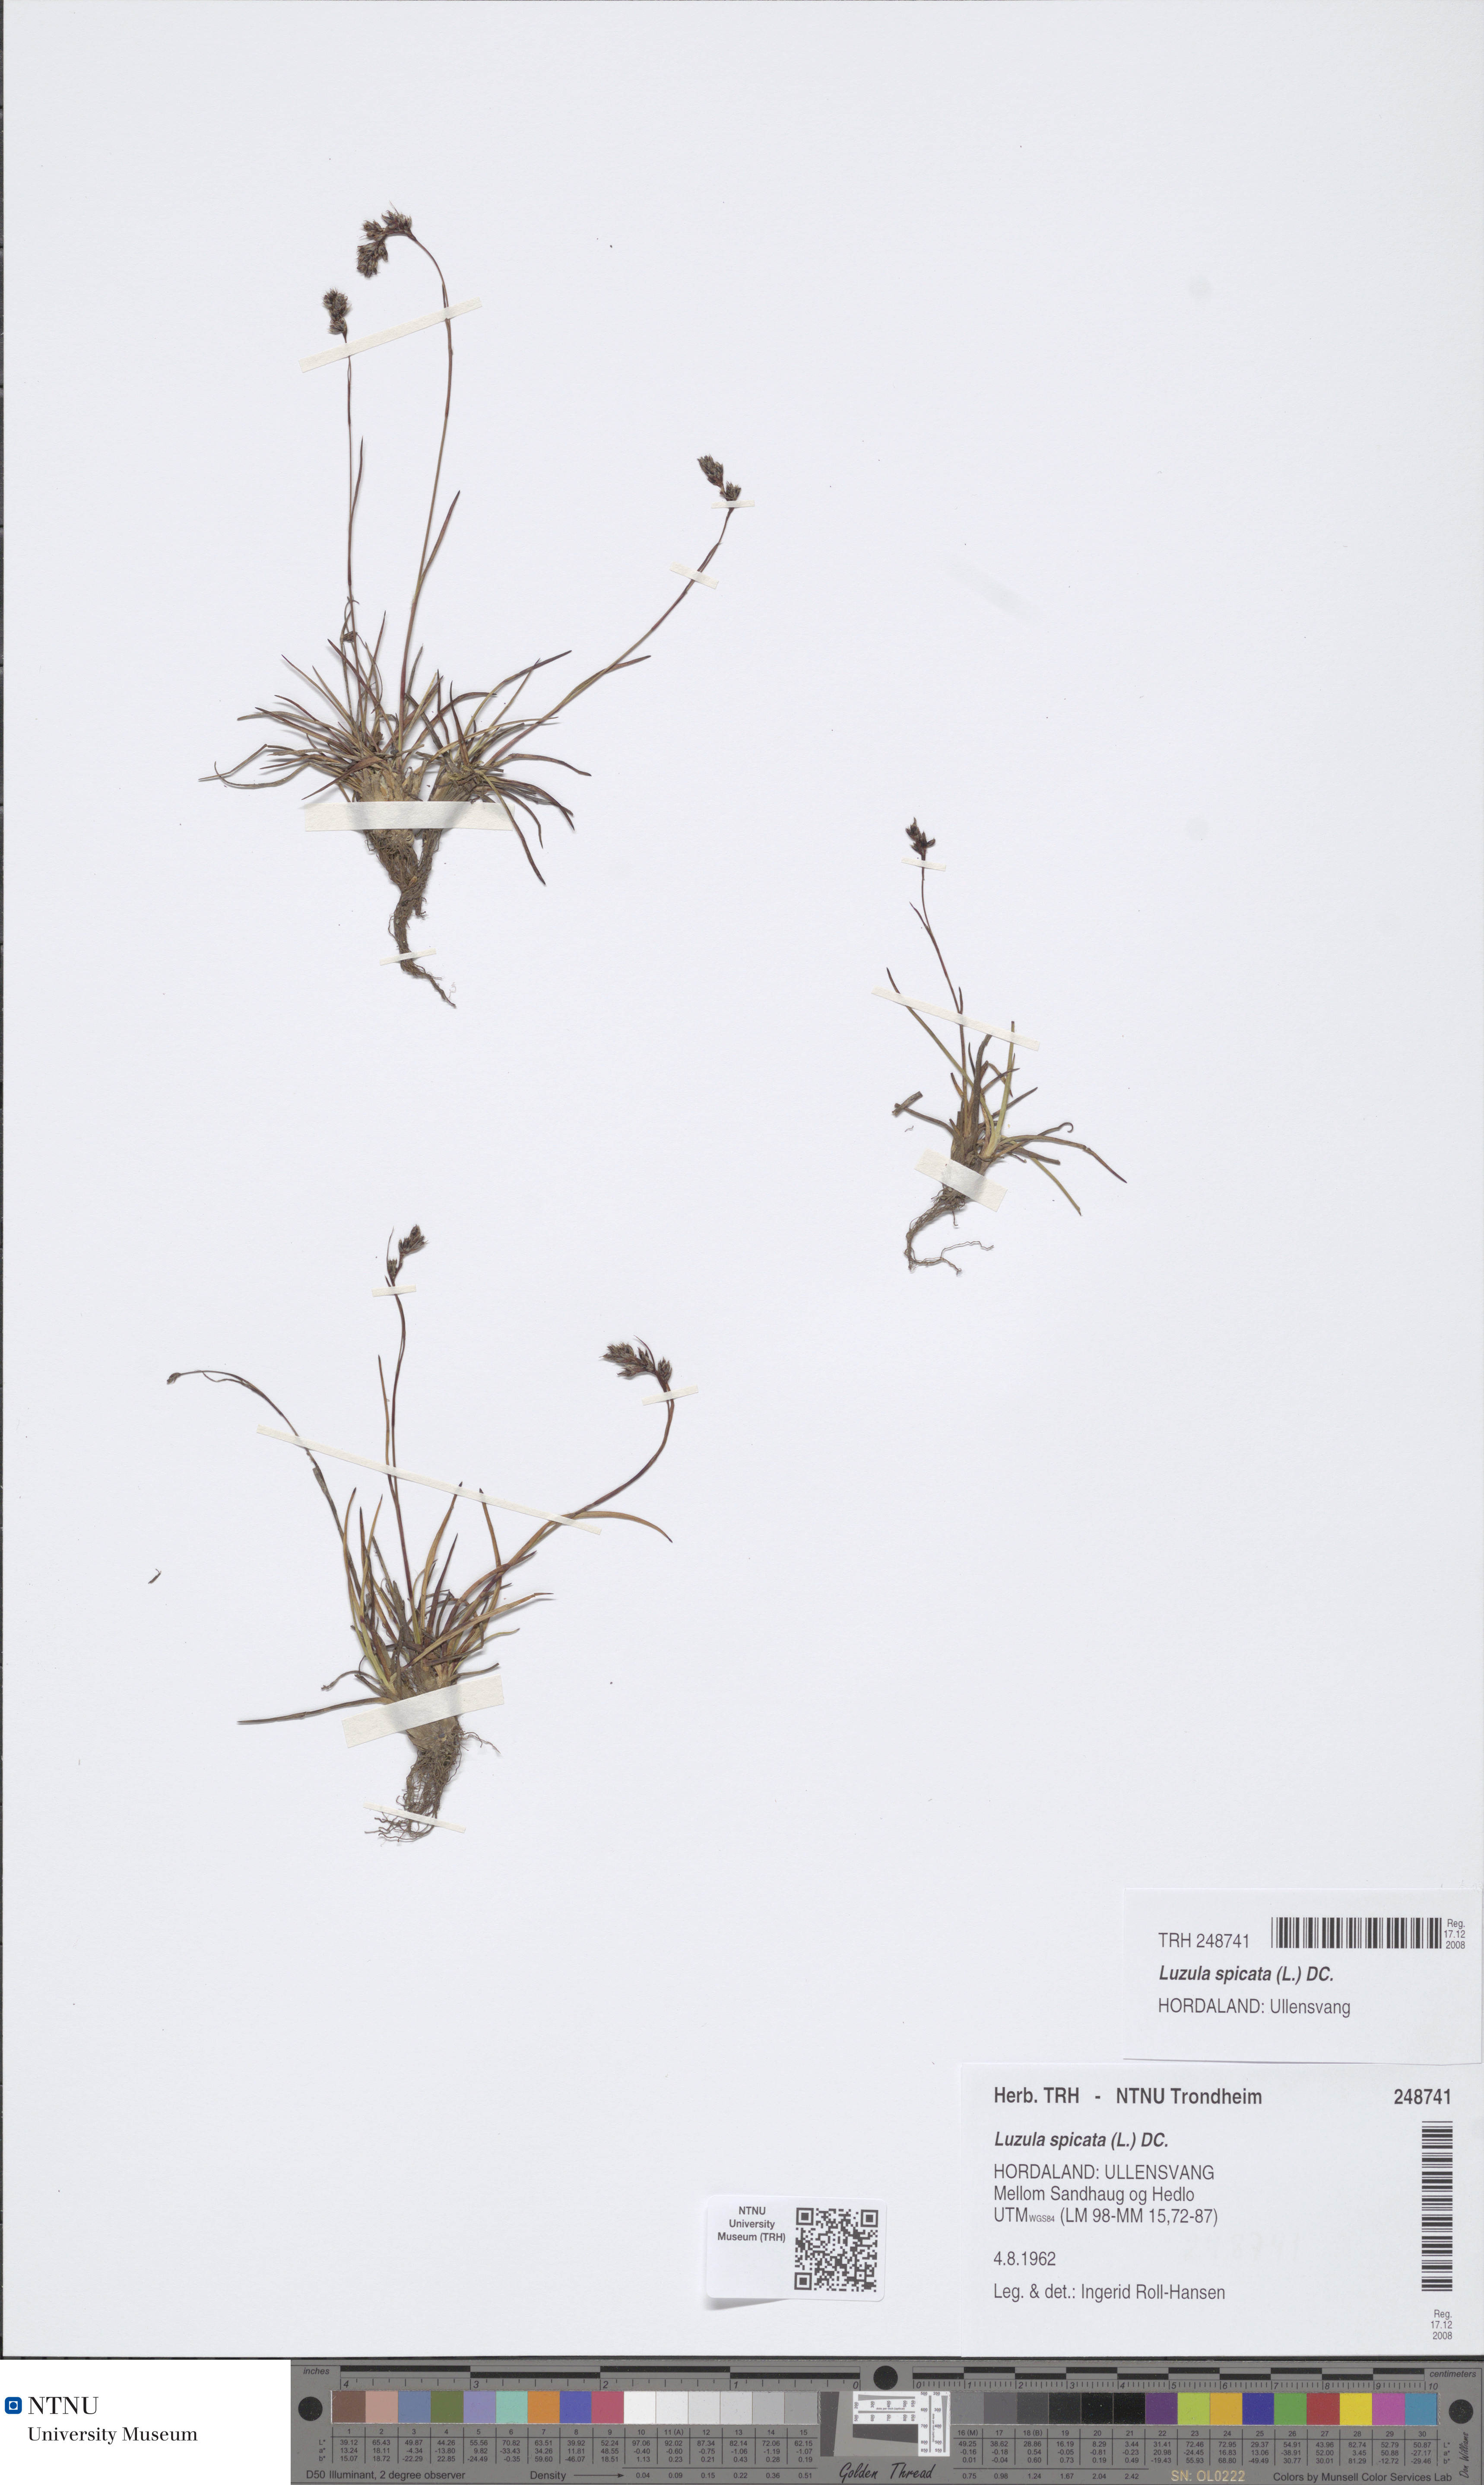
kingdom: Plantae
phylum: Tracheophyta
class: Liliopsida
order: Poales
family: Juncaceae
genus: Luzula
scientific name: Luzula spicata
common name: Spiked wood-rush
